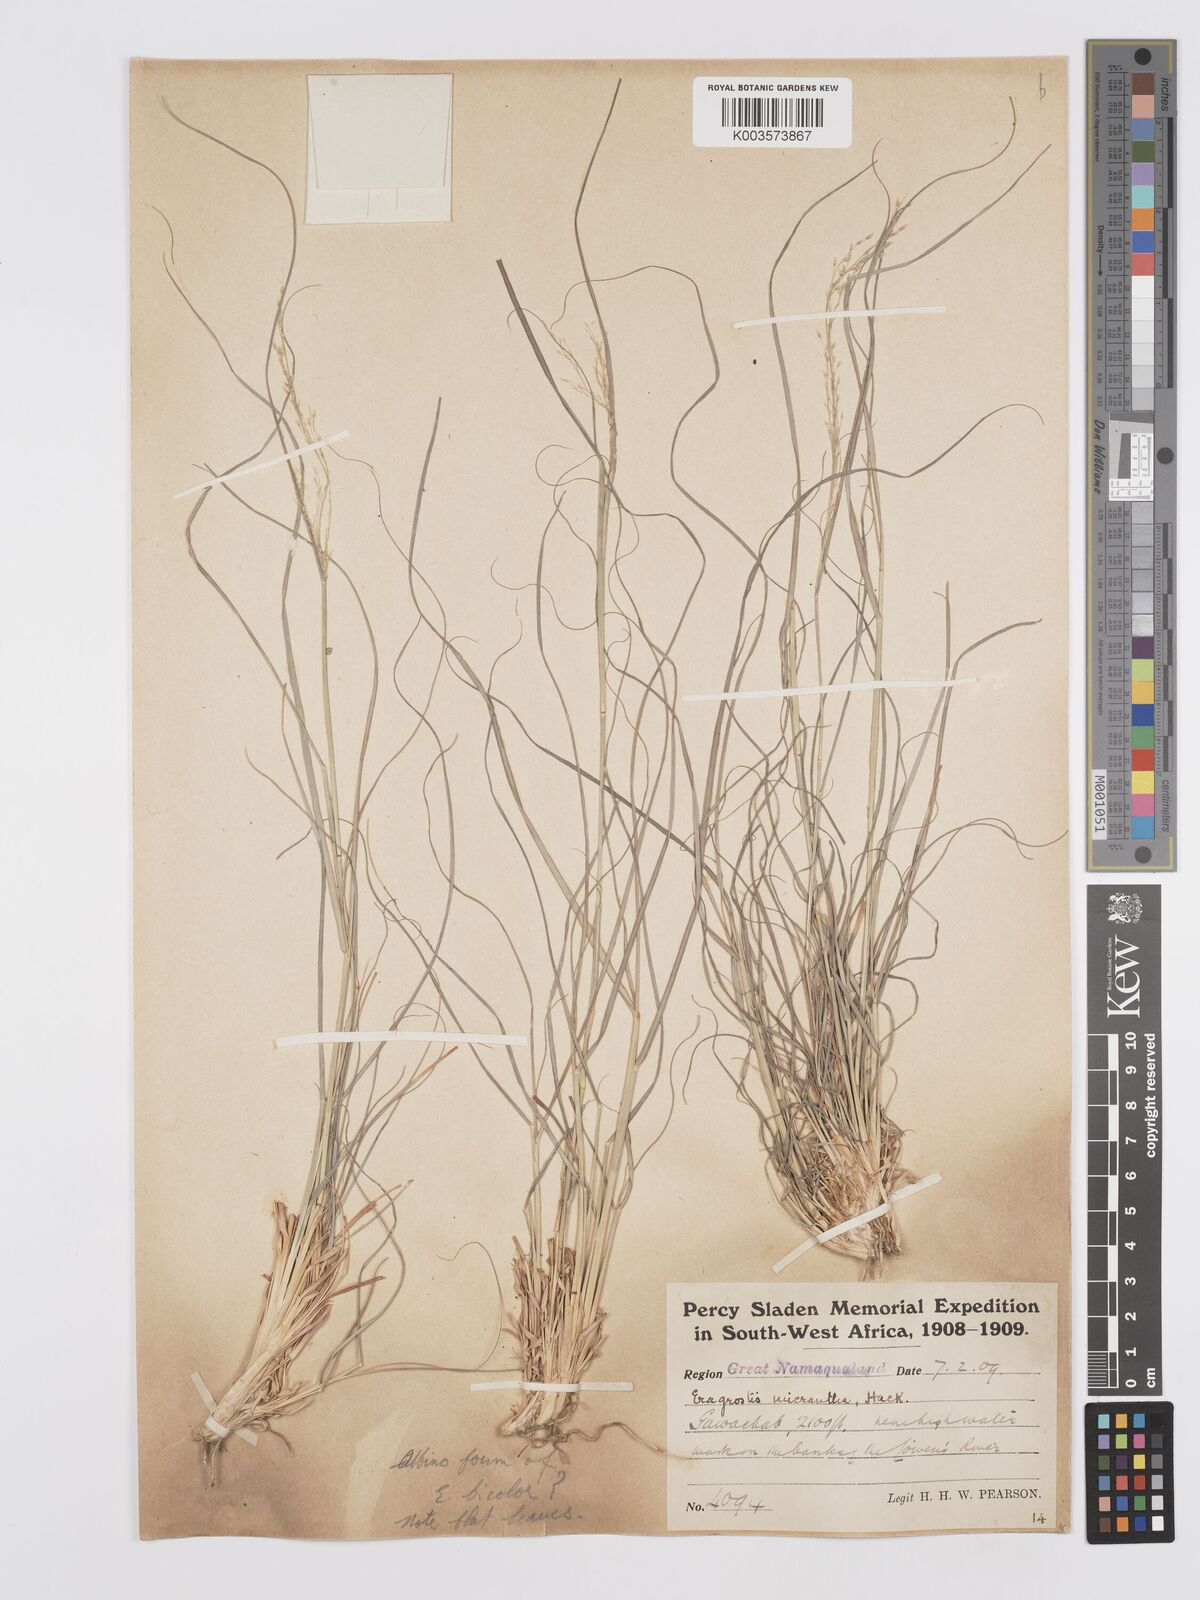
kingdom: Plantae
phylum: Tracheophyta
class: Liliopsida
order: Poales
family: Poaceae
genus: Eragrostis
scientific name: Eragrostis
